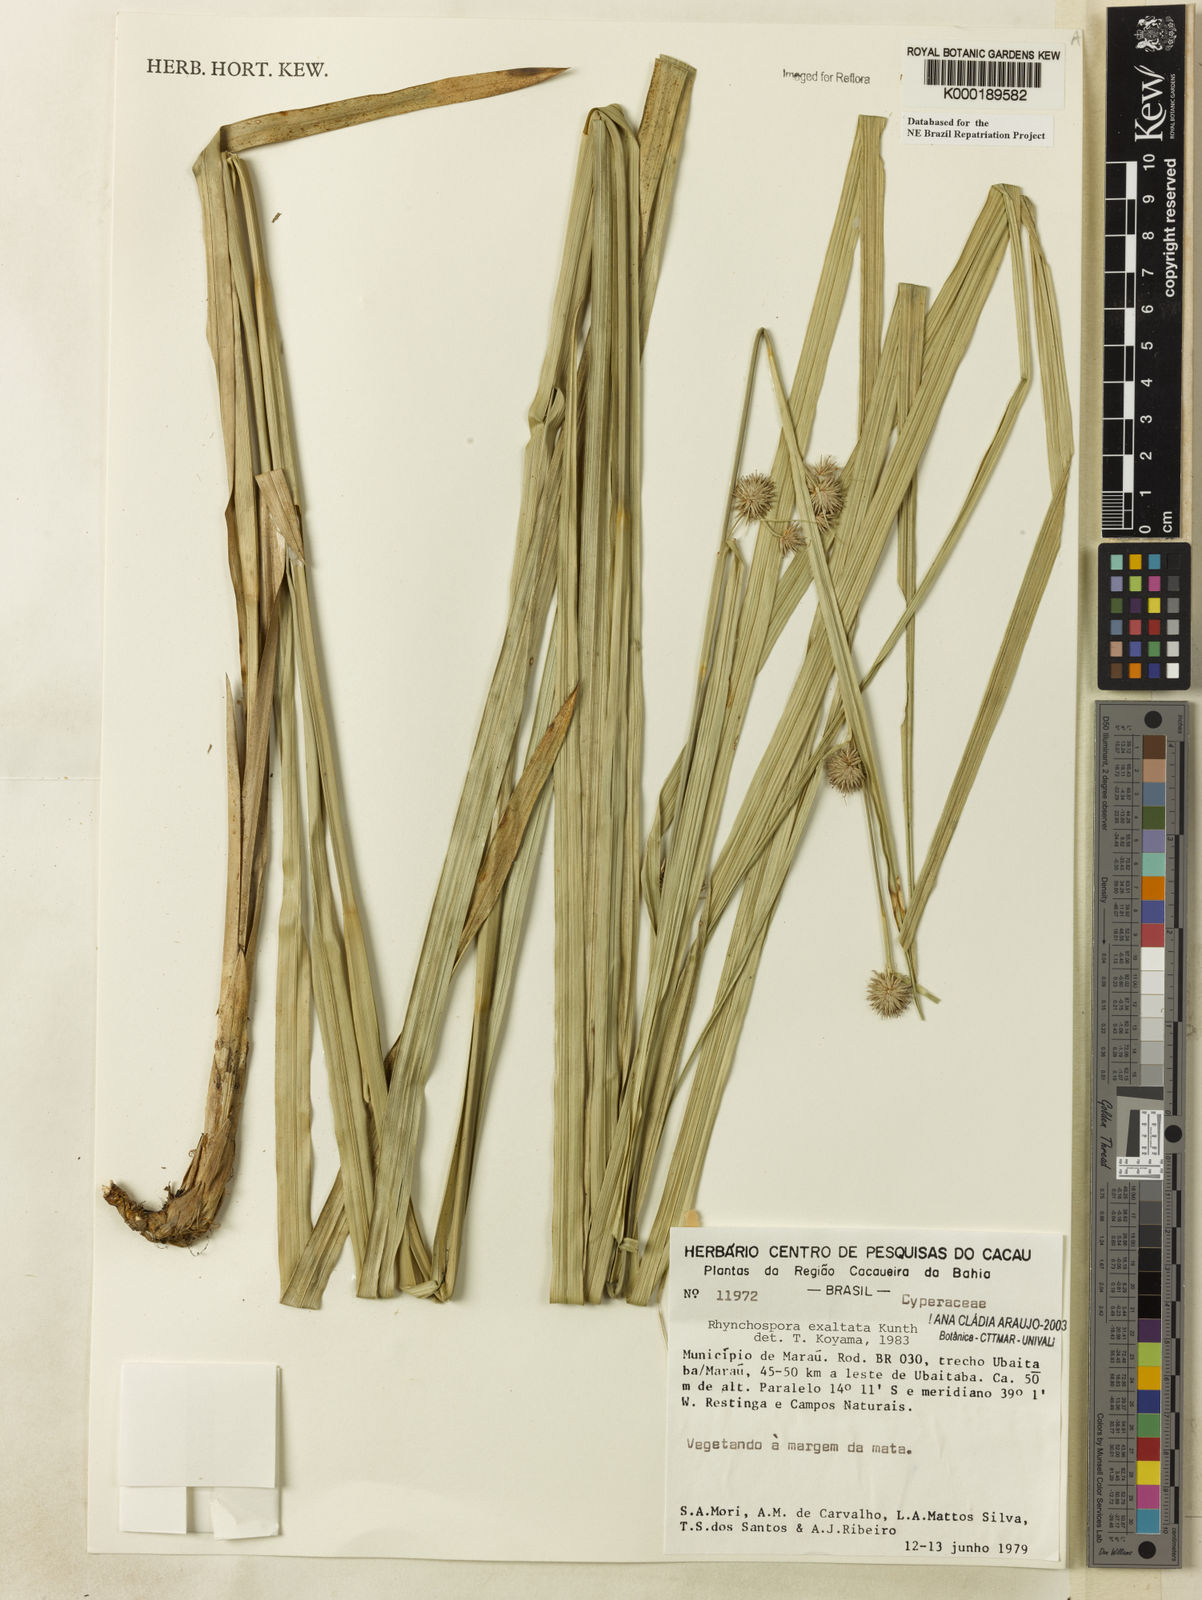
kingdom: Plantae
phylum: Tracheophyta
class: Liliopsida
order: Poales
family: Cyperaceae
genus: Rhynchospora
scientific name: Rhynchospora exaltata
